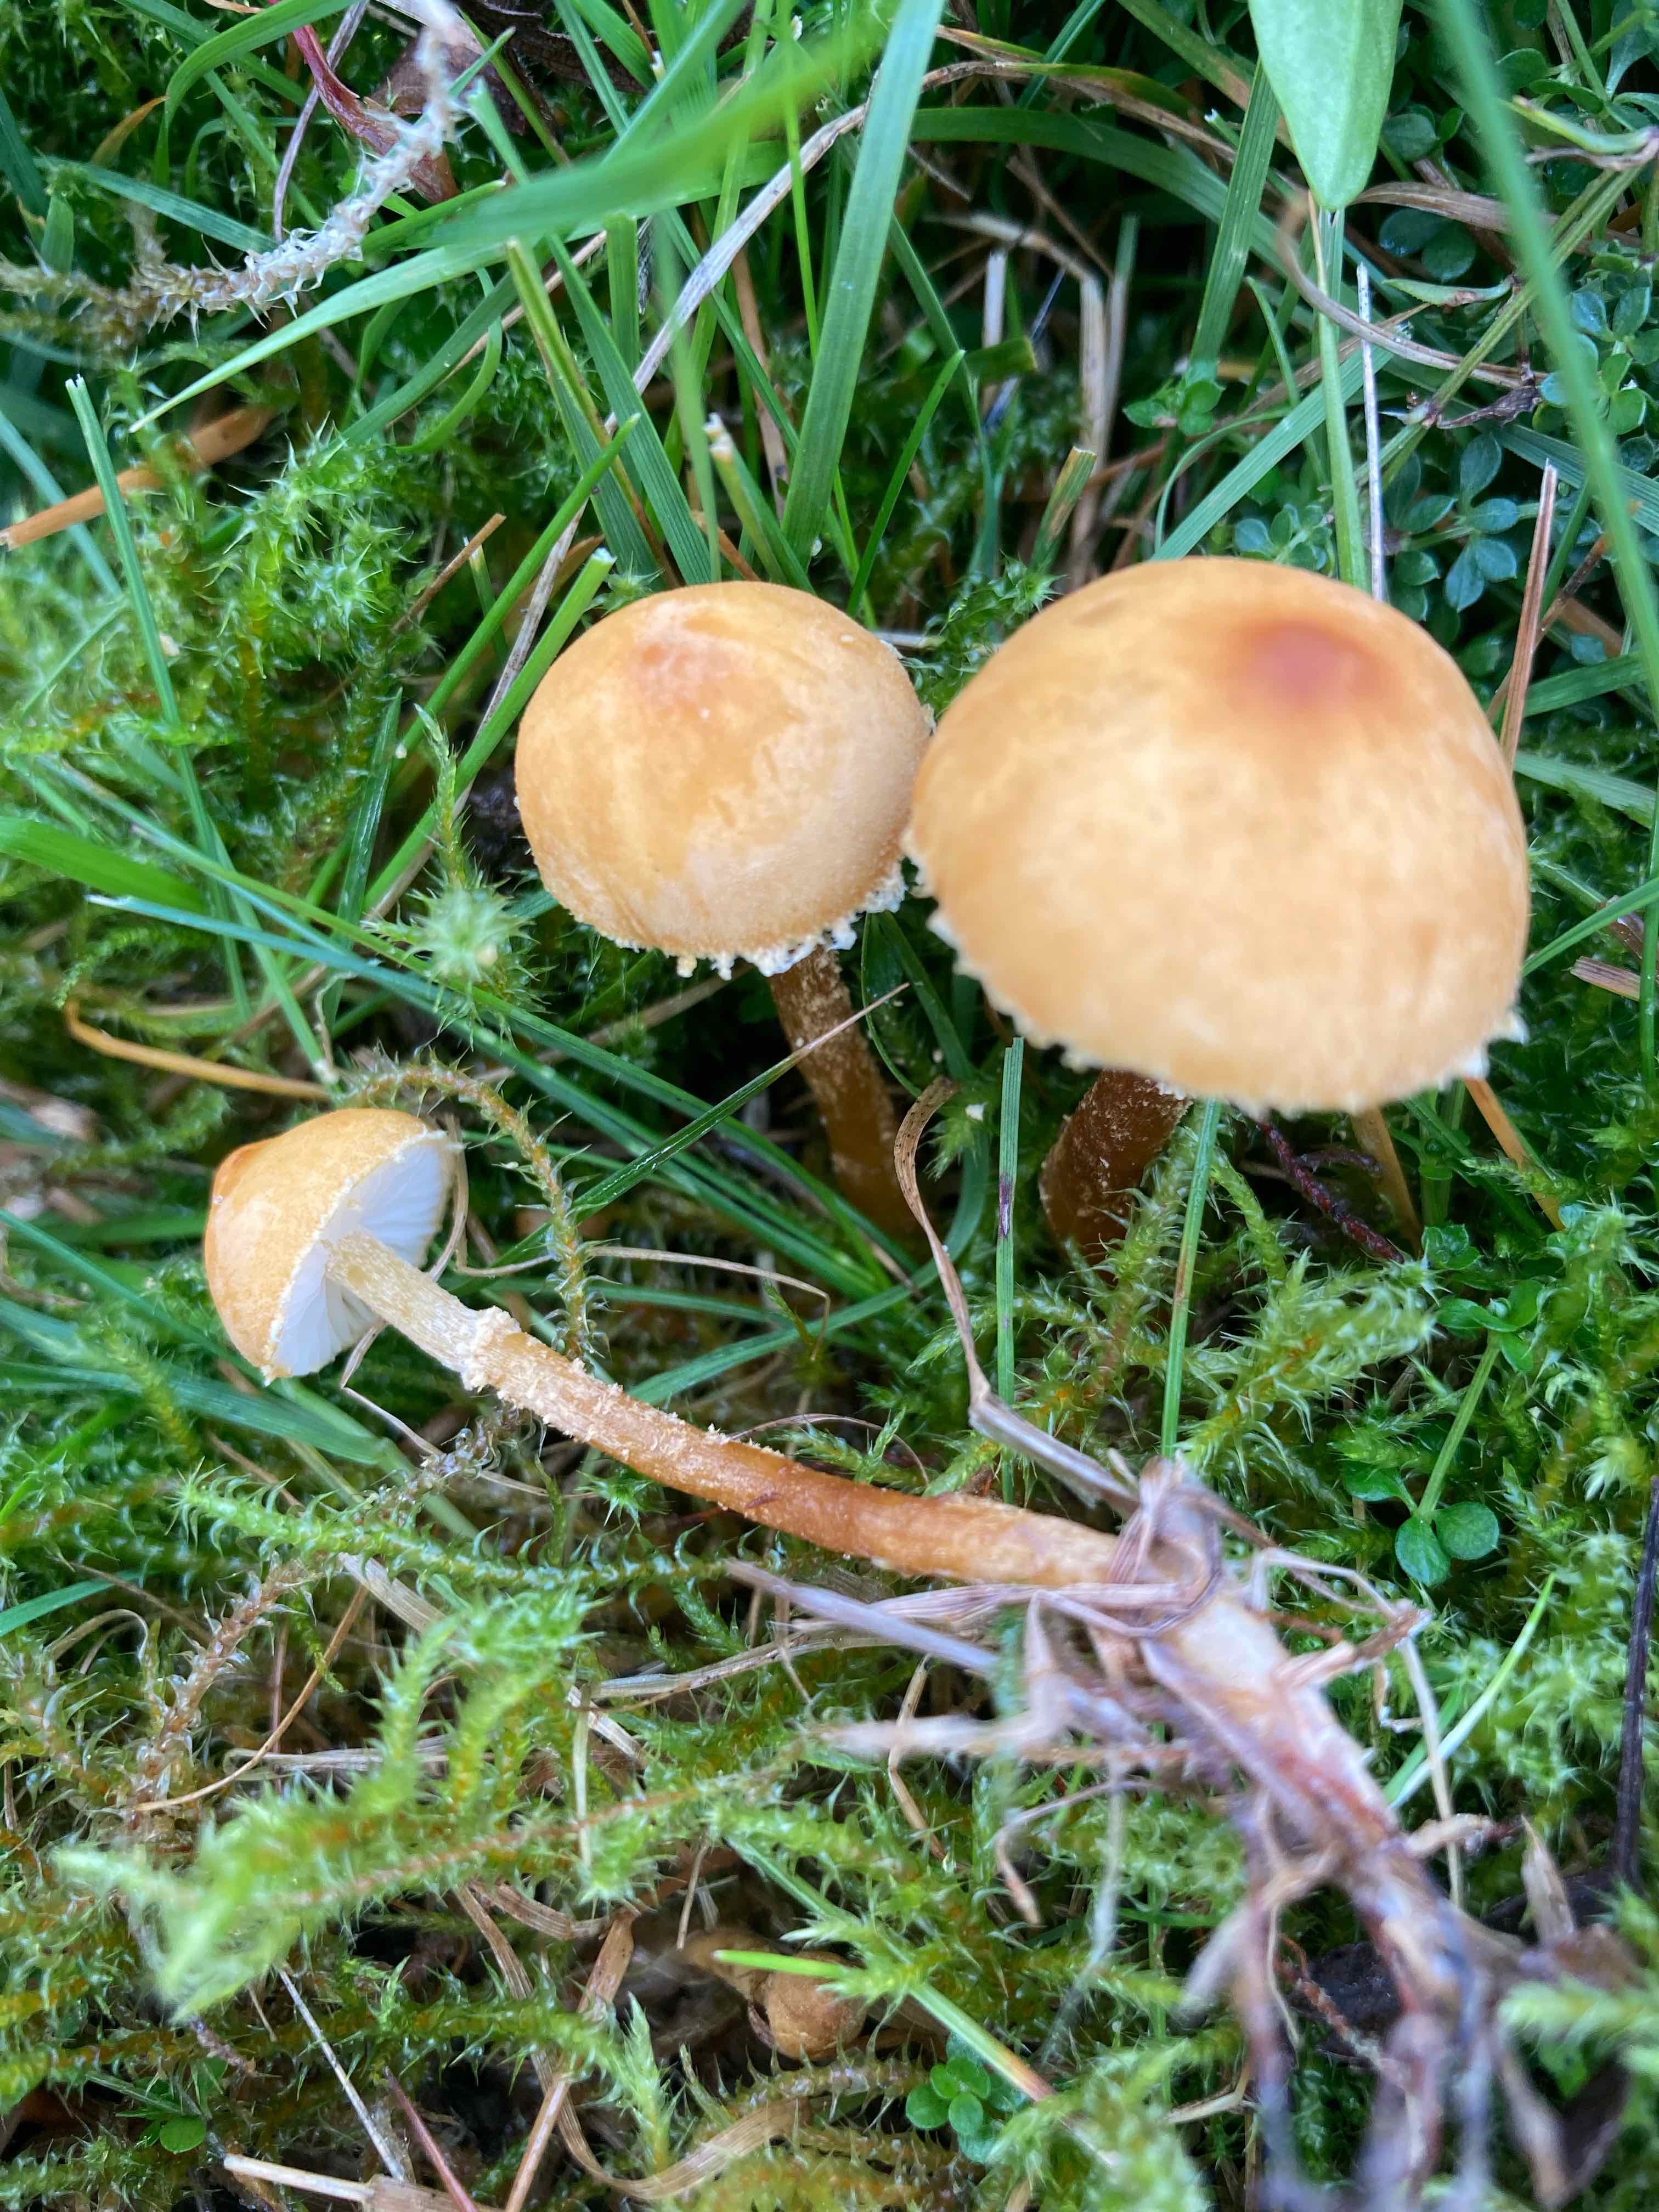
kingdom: Fungi
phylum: Basidiomycota
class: Agaricomycetes
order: Agaricales
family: Tricholomataceae
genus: Cystoderma
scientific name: Cystoderma amianthinum
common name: okkergul grynhat
